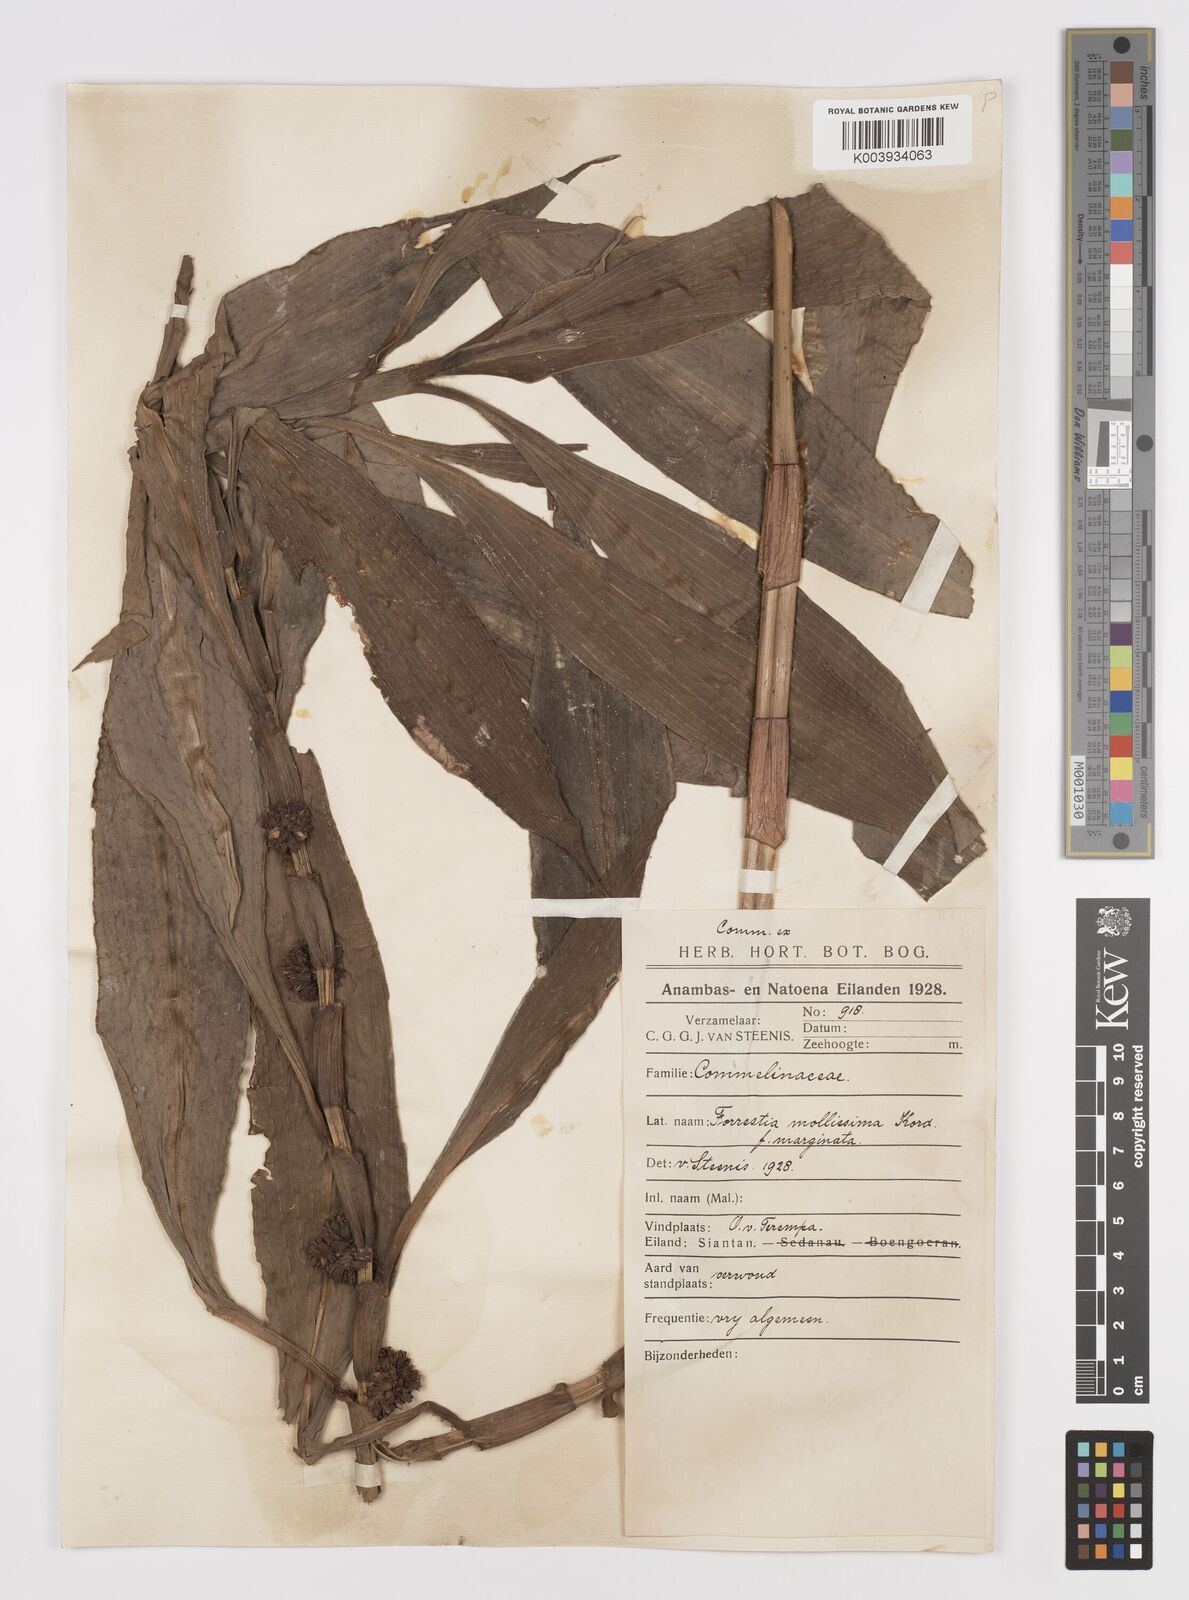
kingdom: Plantae
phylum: Tracheophyta
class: Liliopsida
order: Commelinales
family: Commelinaceae
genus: Amischotolype
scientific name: Amischotolype mollissima
